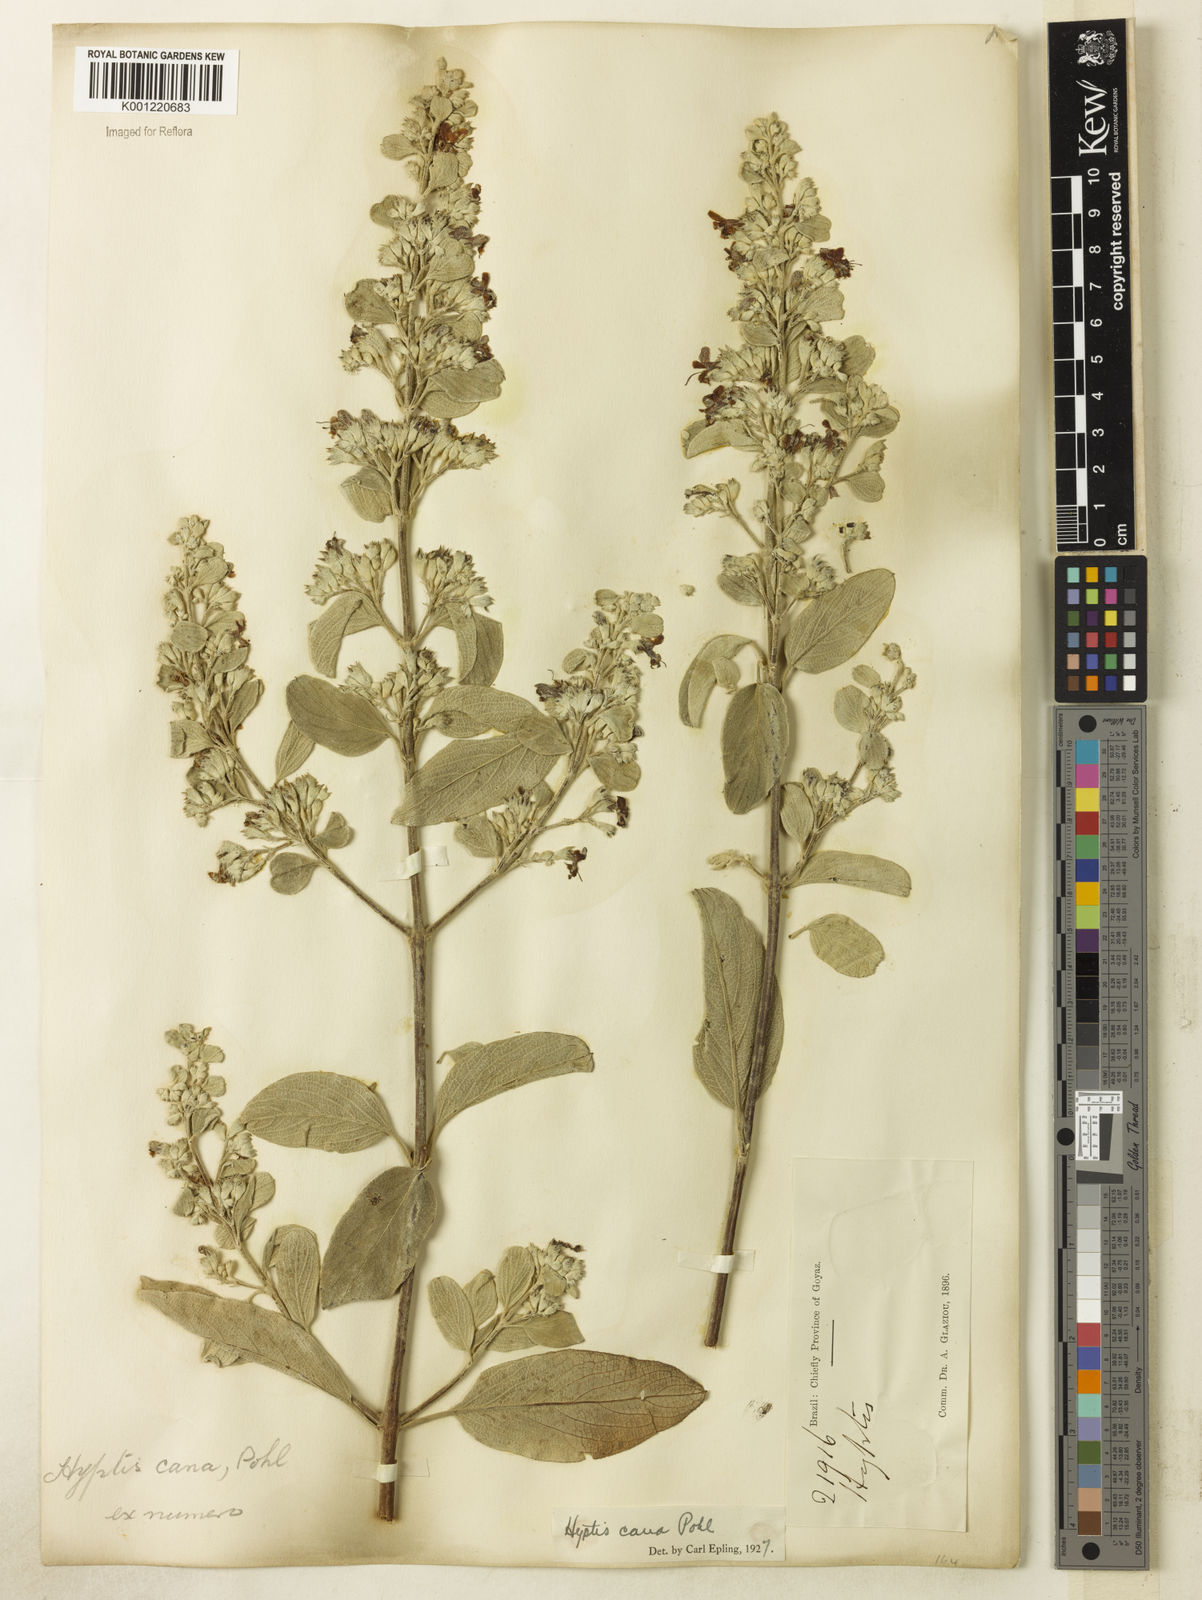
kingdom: Plantae
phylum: Tracheophyta
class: Magnoliopsida
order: Lamiales
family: Lamiaceae
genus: Hyptidendron
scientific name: Hyptidendron canum
